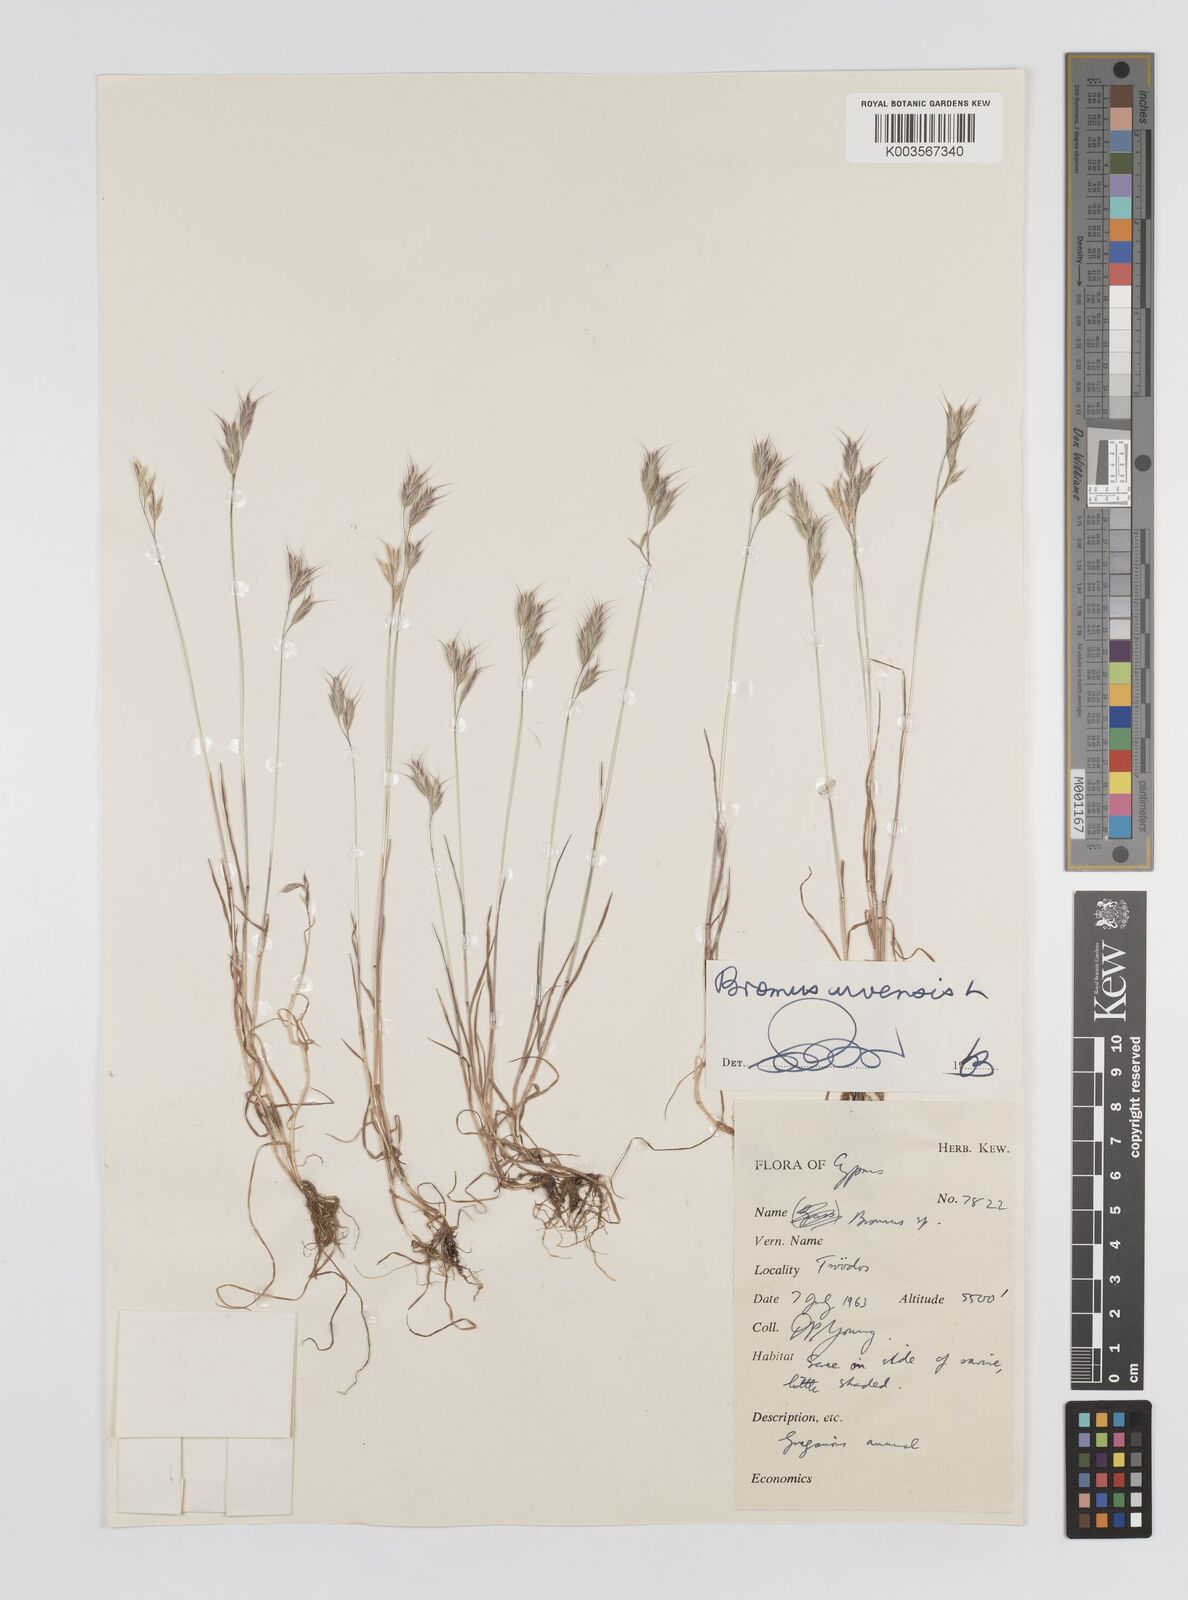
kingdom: Plantae
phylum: Tracheophyta
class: Liliopsida
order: Poales
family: Poaceae
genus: Bromus
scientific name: Bromus arvensis
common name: Field brome
